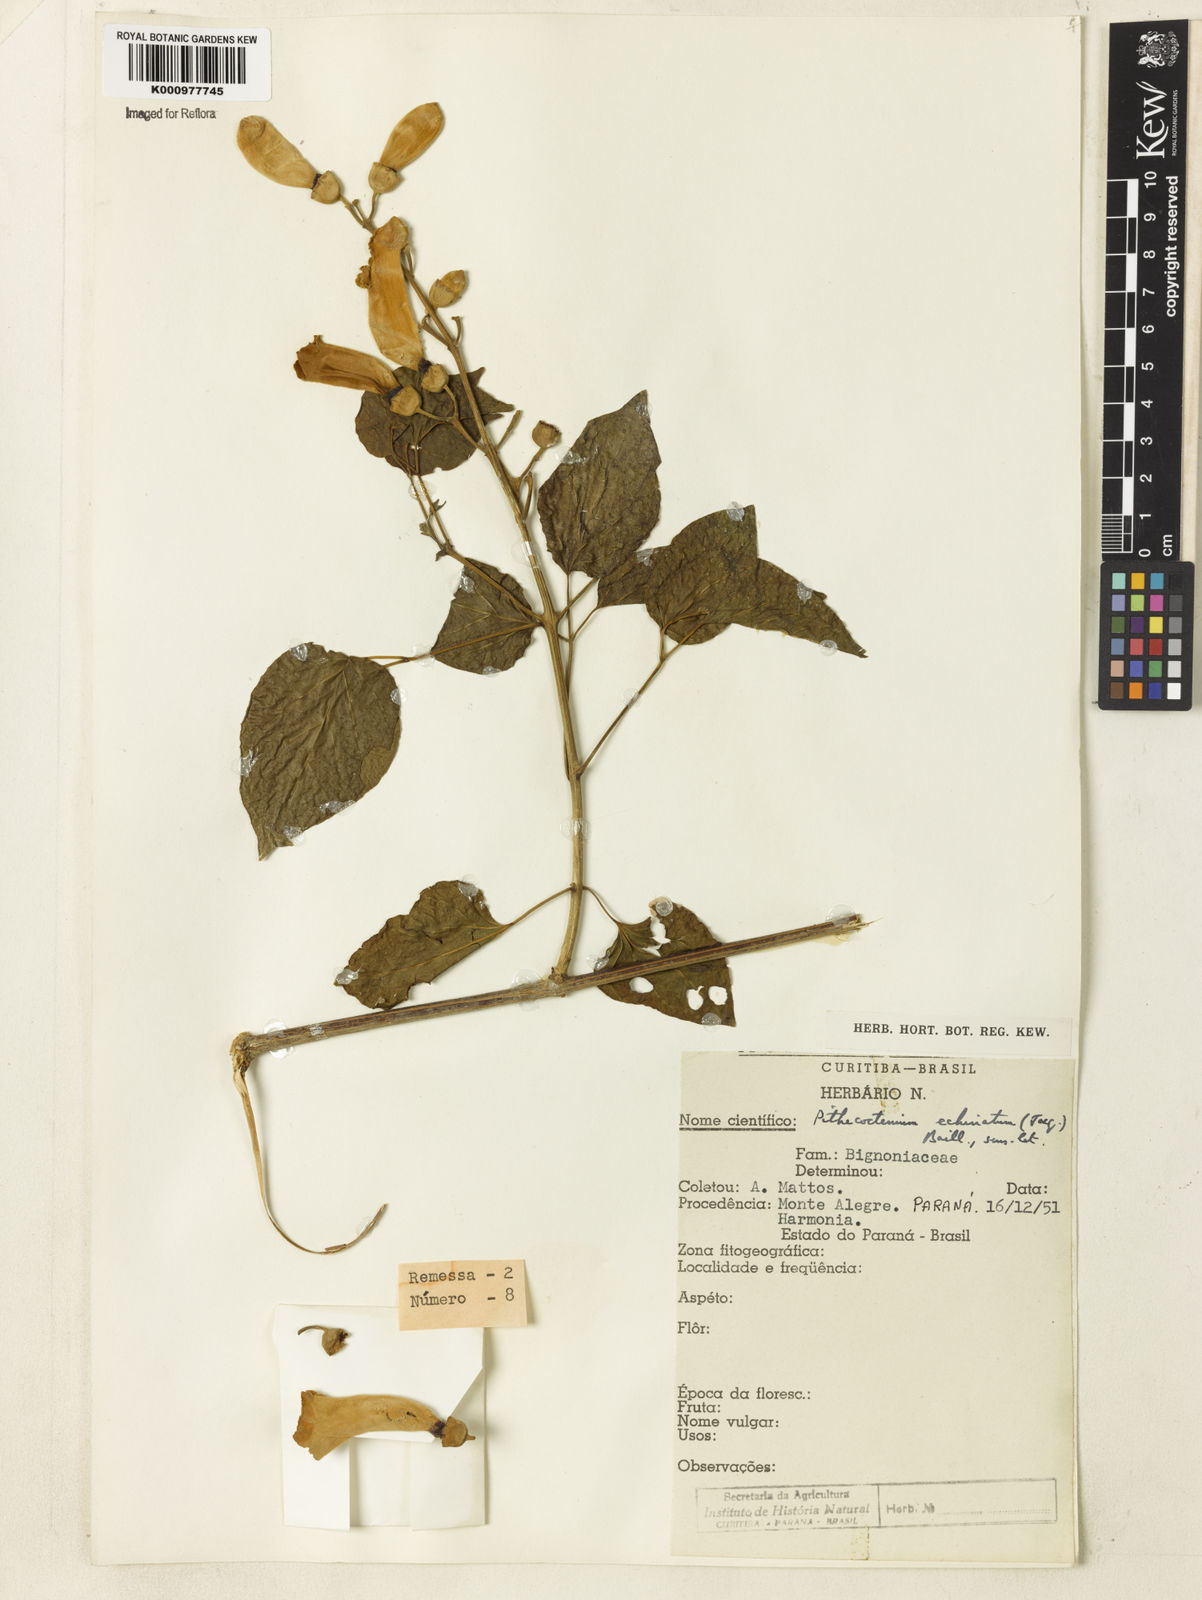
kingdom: Plantae
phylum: Tracheophyta
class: Magnoliopsida
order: Lamiales
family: Bignoniaceae
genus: Amphilophium
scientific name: Amphilophium crucigerum
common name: Monkey comb
